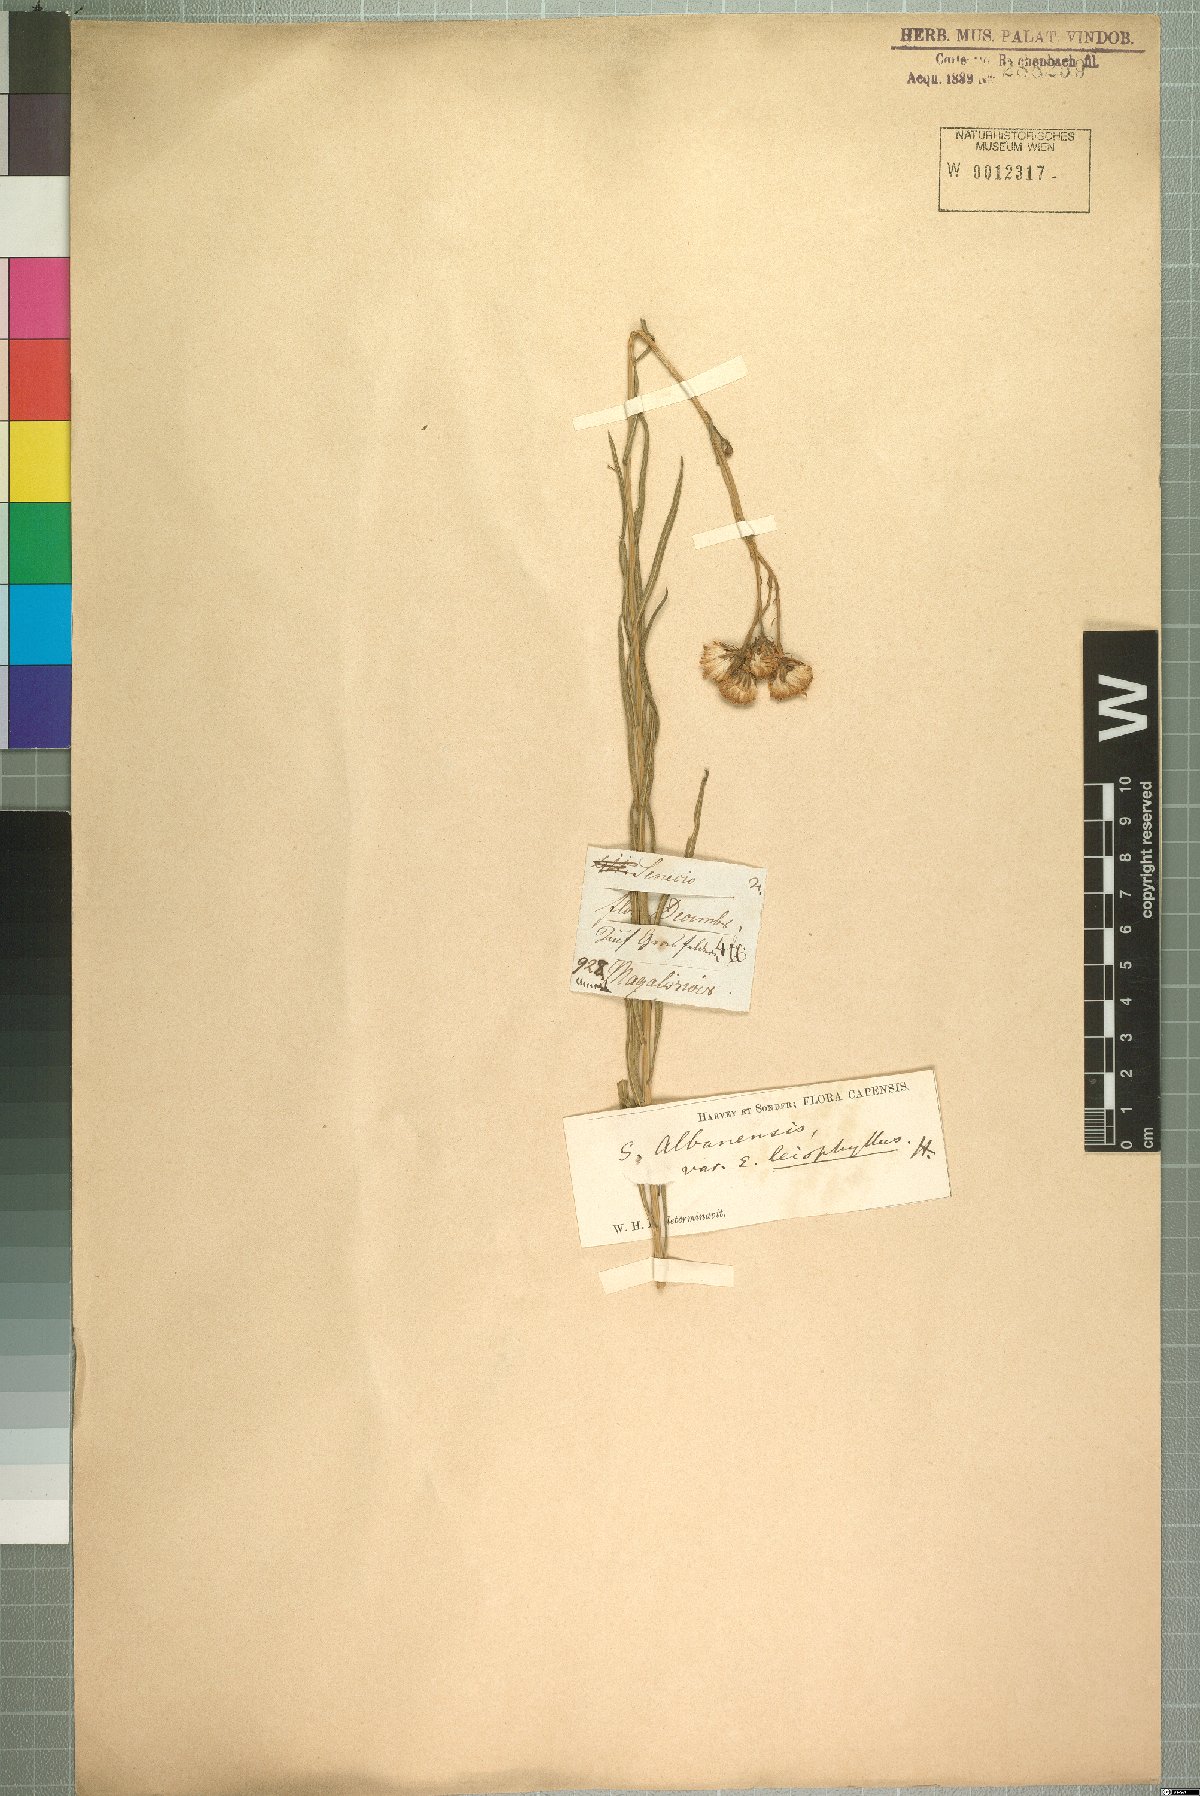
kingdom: Plantae
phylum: Tracheophyta
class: Magnoliopsida
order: Asterales
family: Asteraceae
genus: Senecio
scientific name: Senecio affinis
